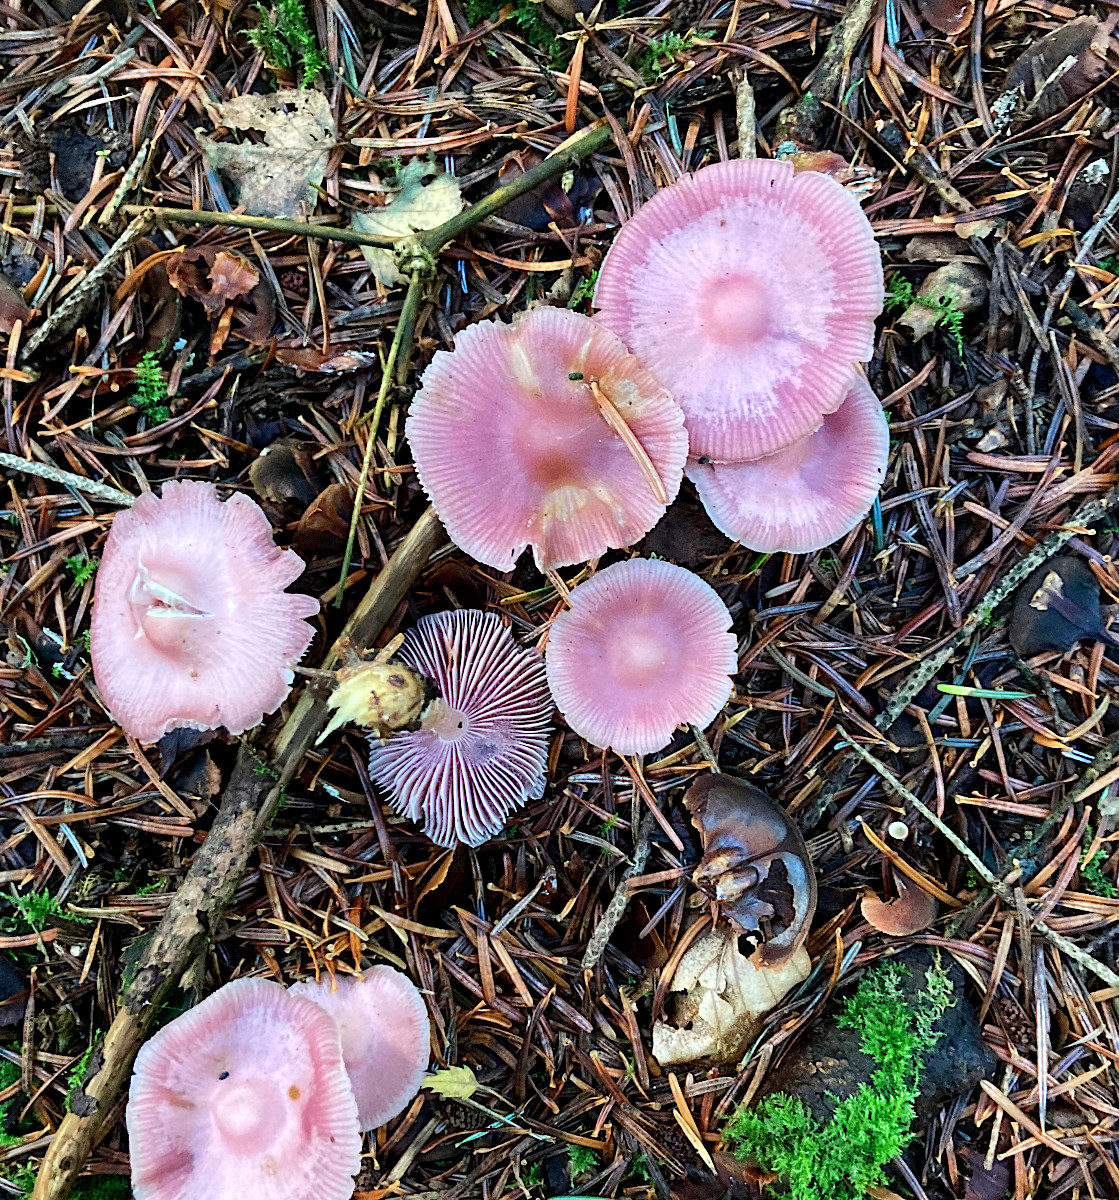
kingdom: Fungi
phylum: Basidiomycota
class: Agaricomycetes
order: Agaricales
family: Mycenaceae
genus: Mycena
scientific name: Mycena rosea
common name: rosa huesvamp
